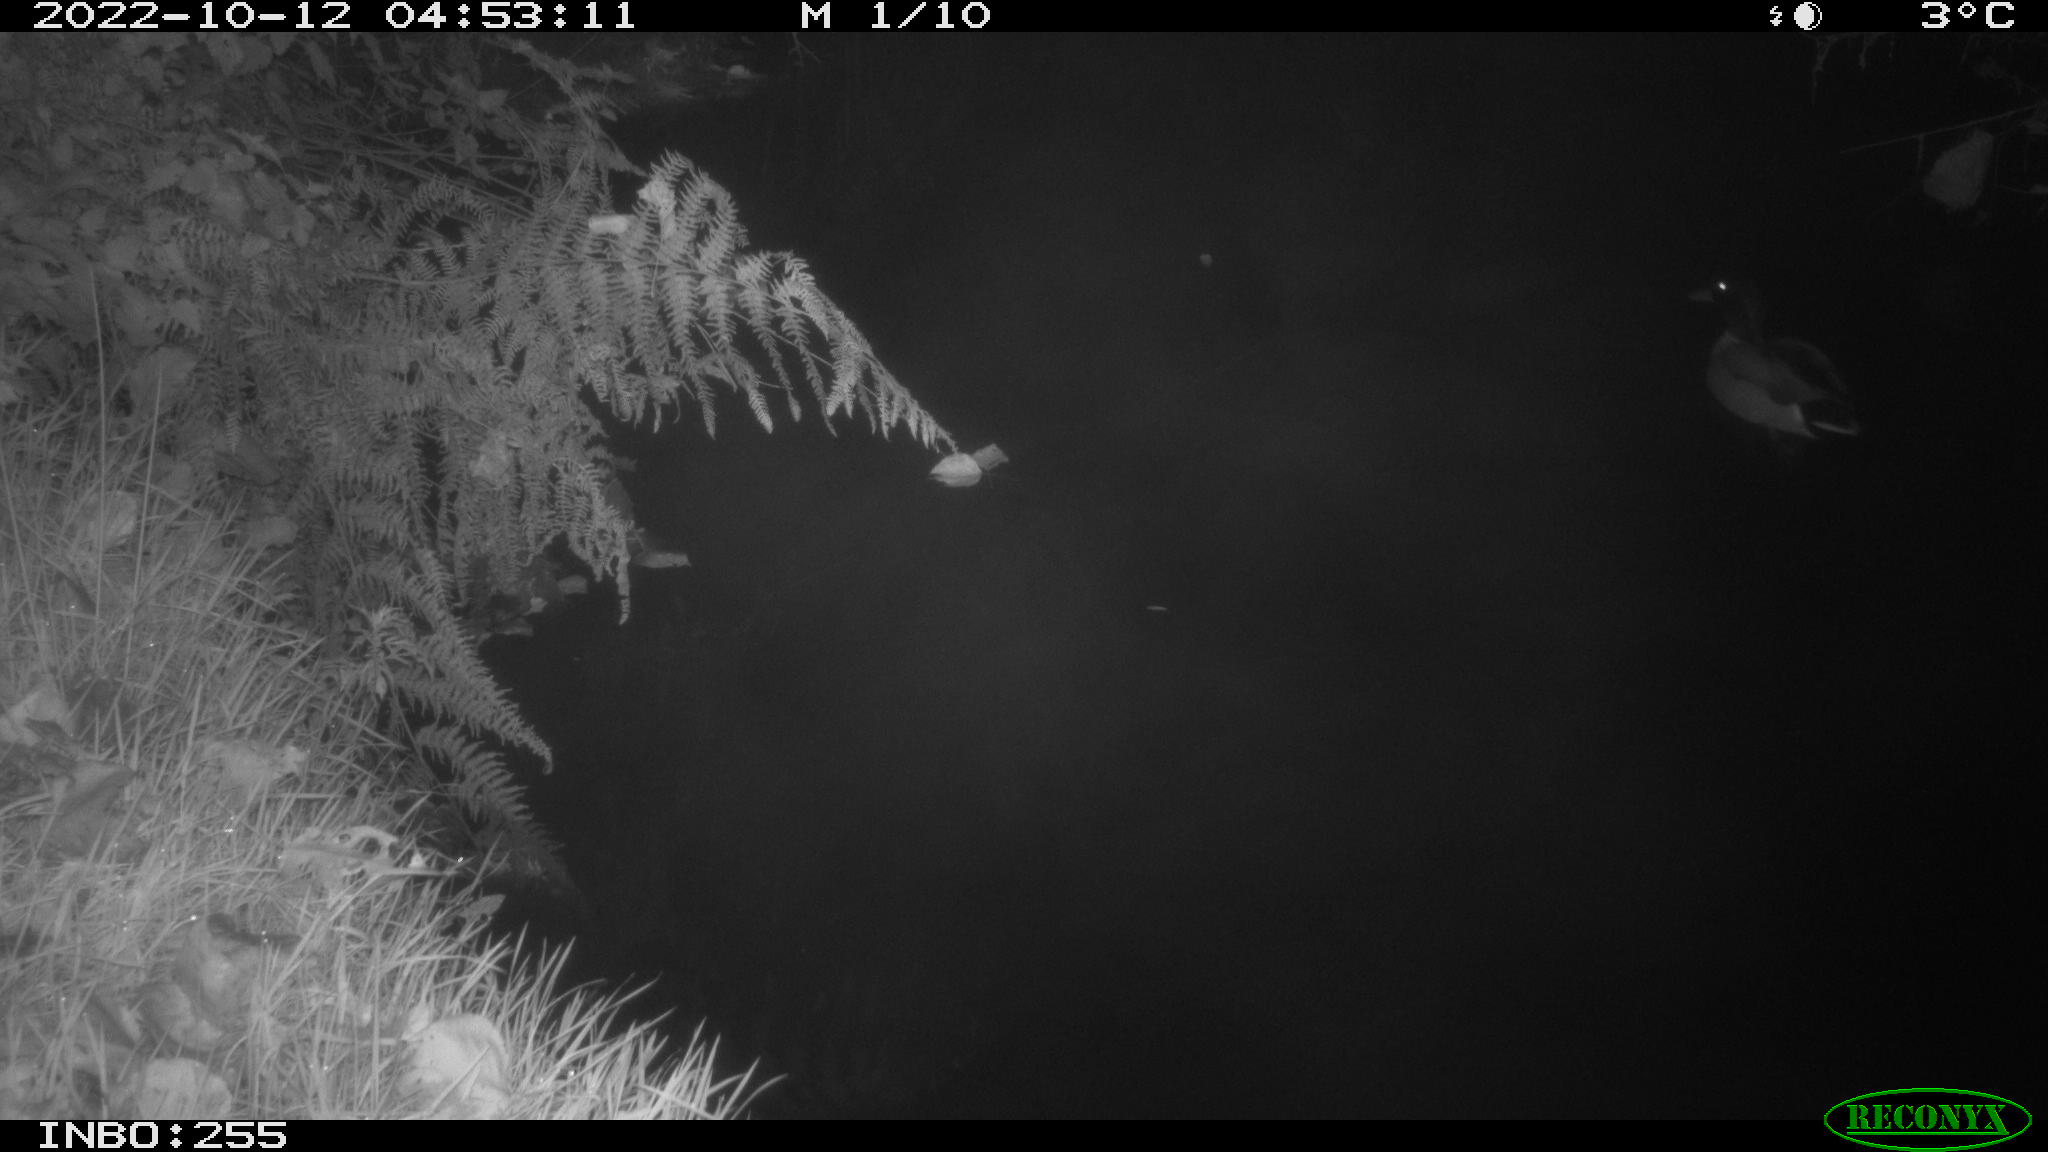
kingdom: Animalia
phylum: Chordata
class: Aves
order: Anseriformes
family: Anatidae
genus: Anas
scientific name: Anas
